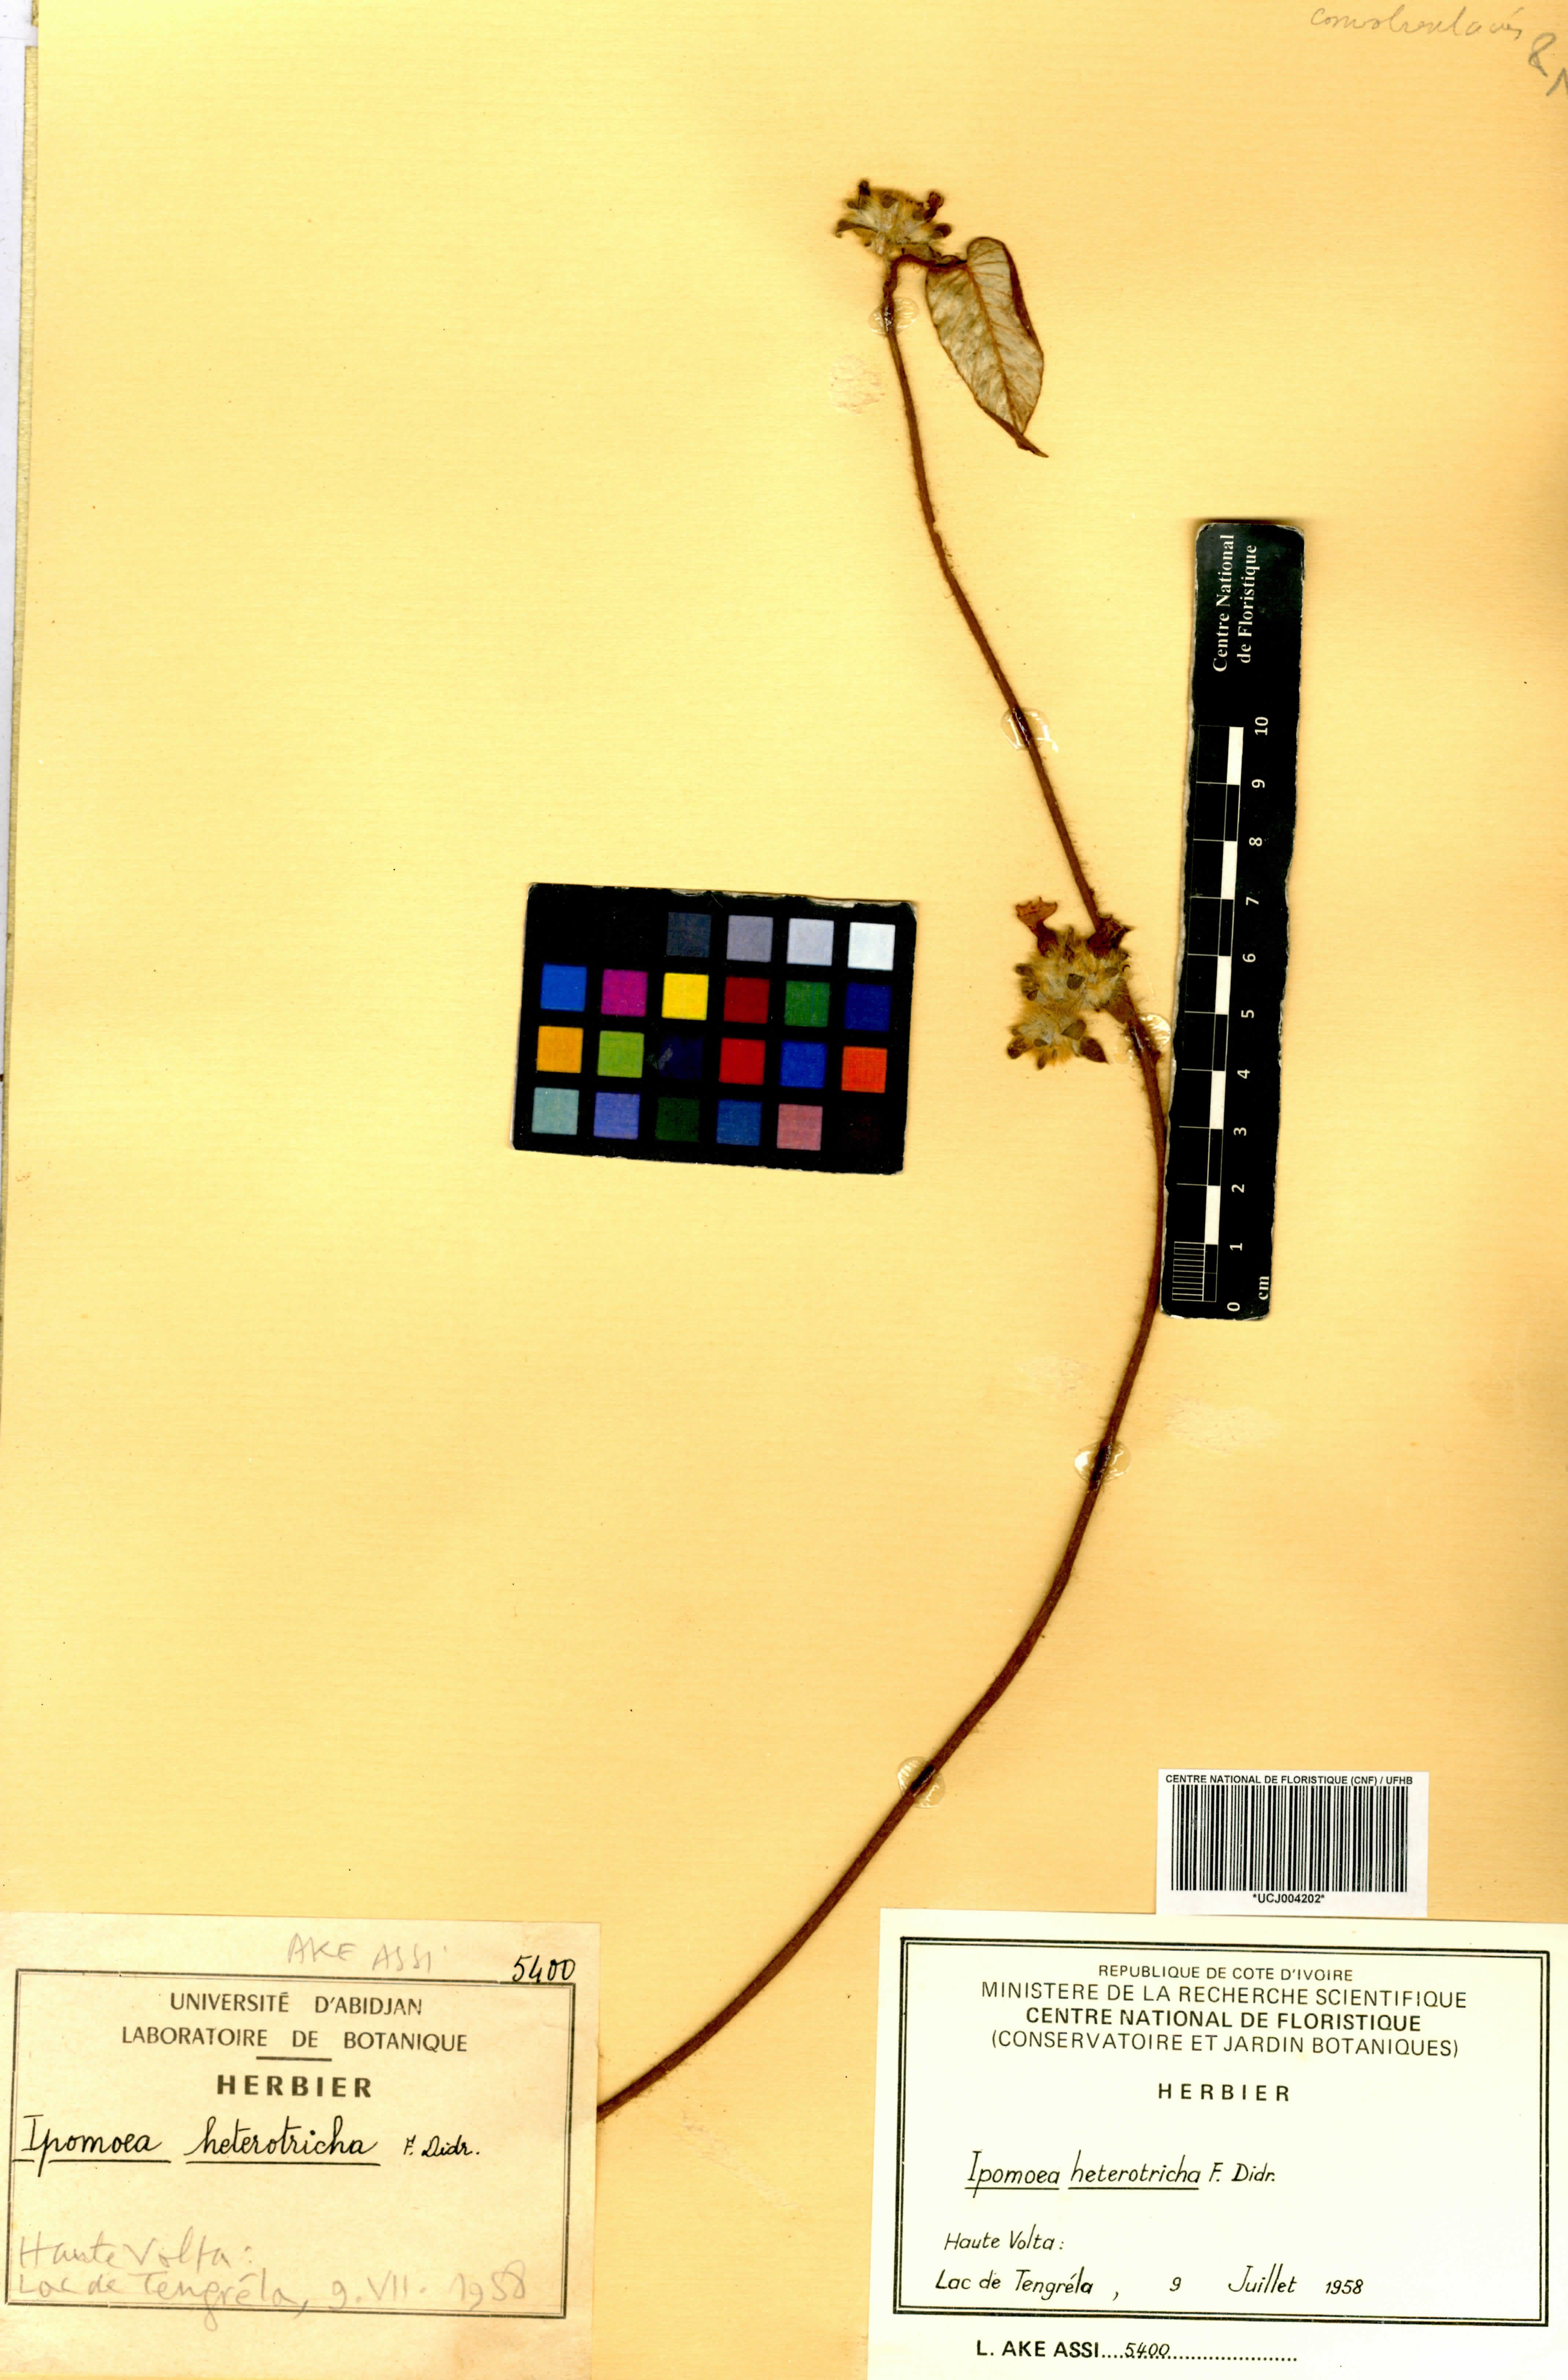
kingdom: Plantae
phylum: Tracheophyta
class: Magnoliopsida
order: Solanales
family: Convolvulaceae
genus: Ipomoea
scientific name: Ipomoea heterotricha
